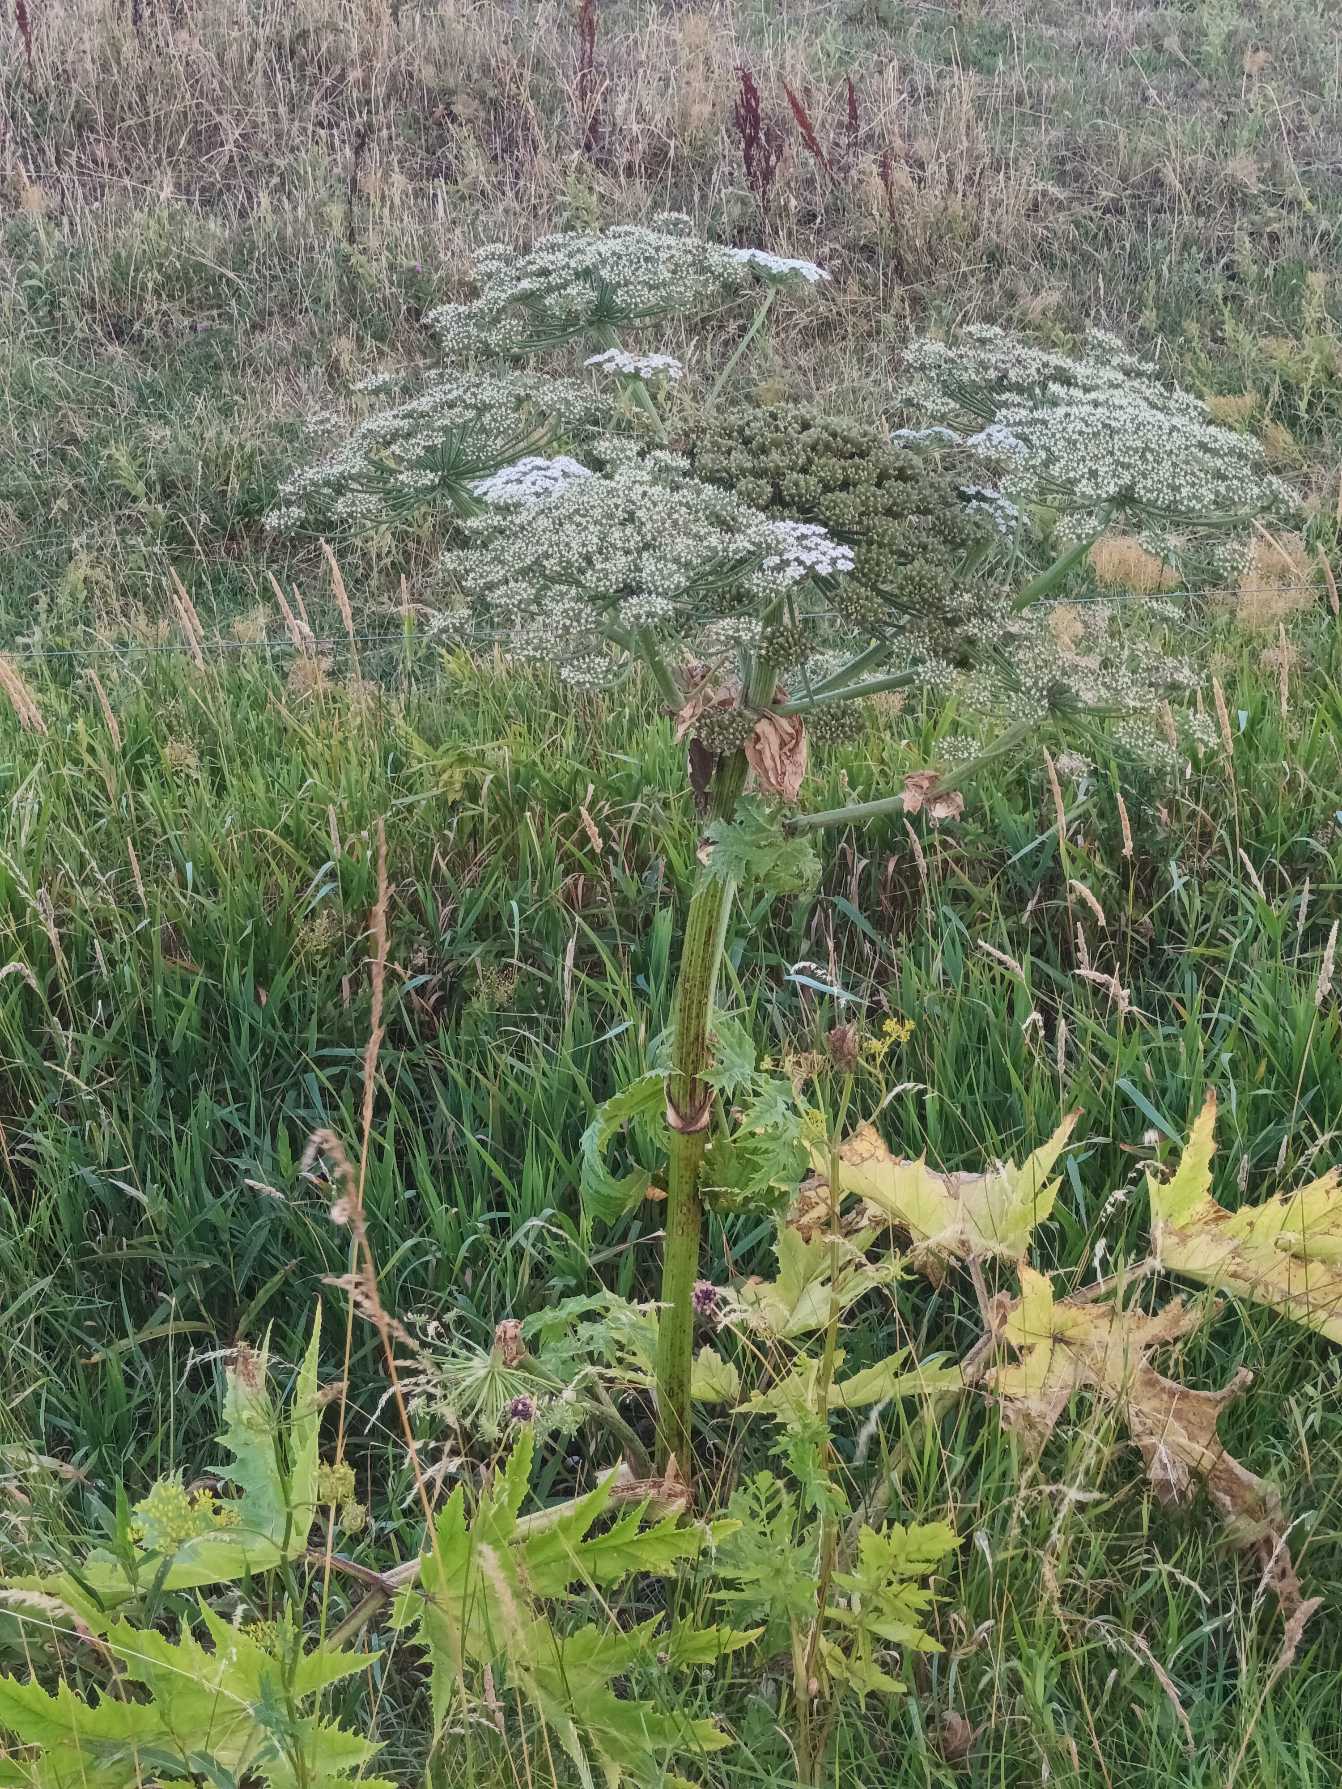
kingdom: Plantae
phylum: Tracheophyta
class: Magnoliopsida
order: Apiales
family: Apiaceae
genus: Heracleum
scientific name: Heracleum mantegazzianum
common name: Kæmpe-bjørneklo
